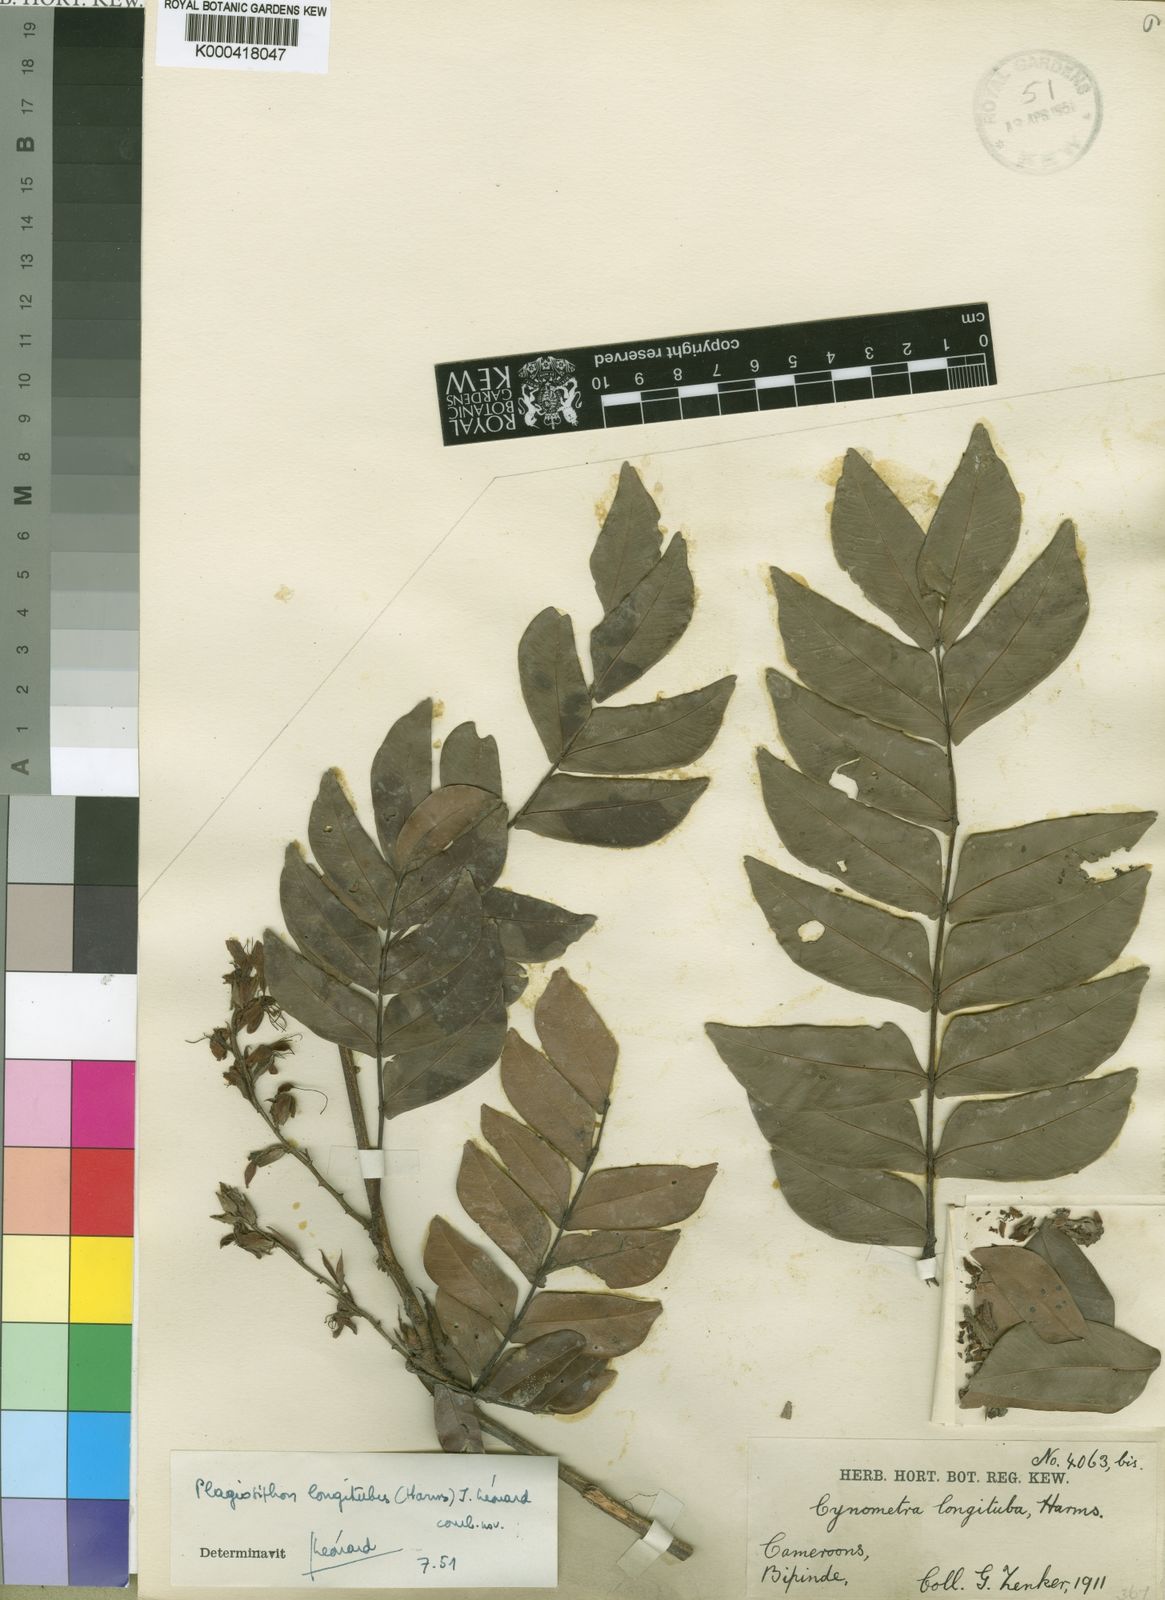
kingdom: Plantae
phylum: Tracheophyta
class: Magnoliopsida
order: Fabales
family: Fabaceae
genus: Plagiosiphon
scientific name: Plagiosiphon
